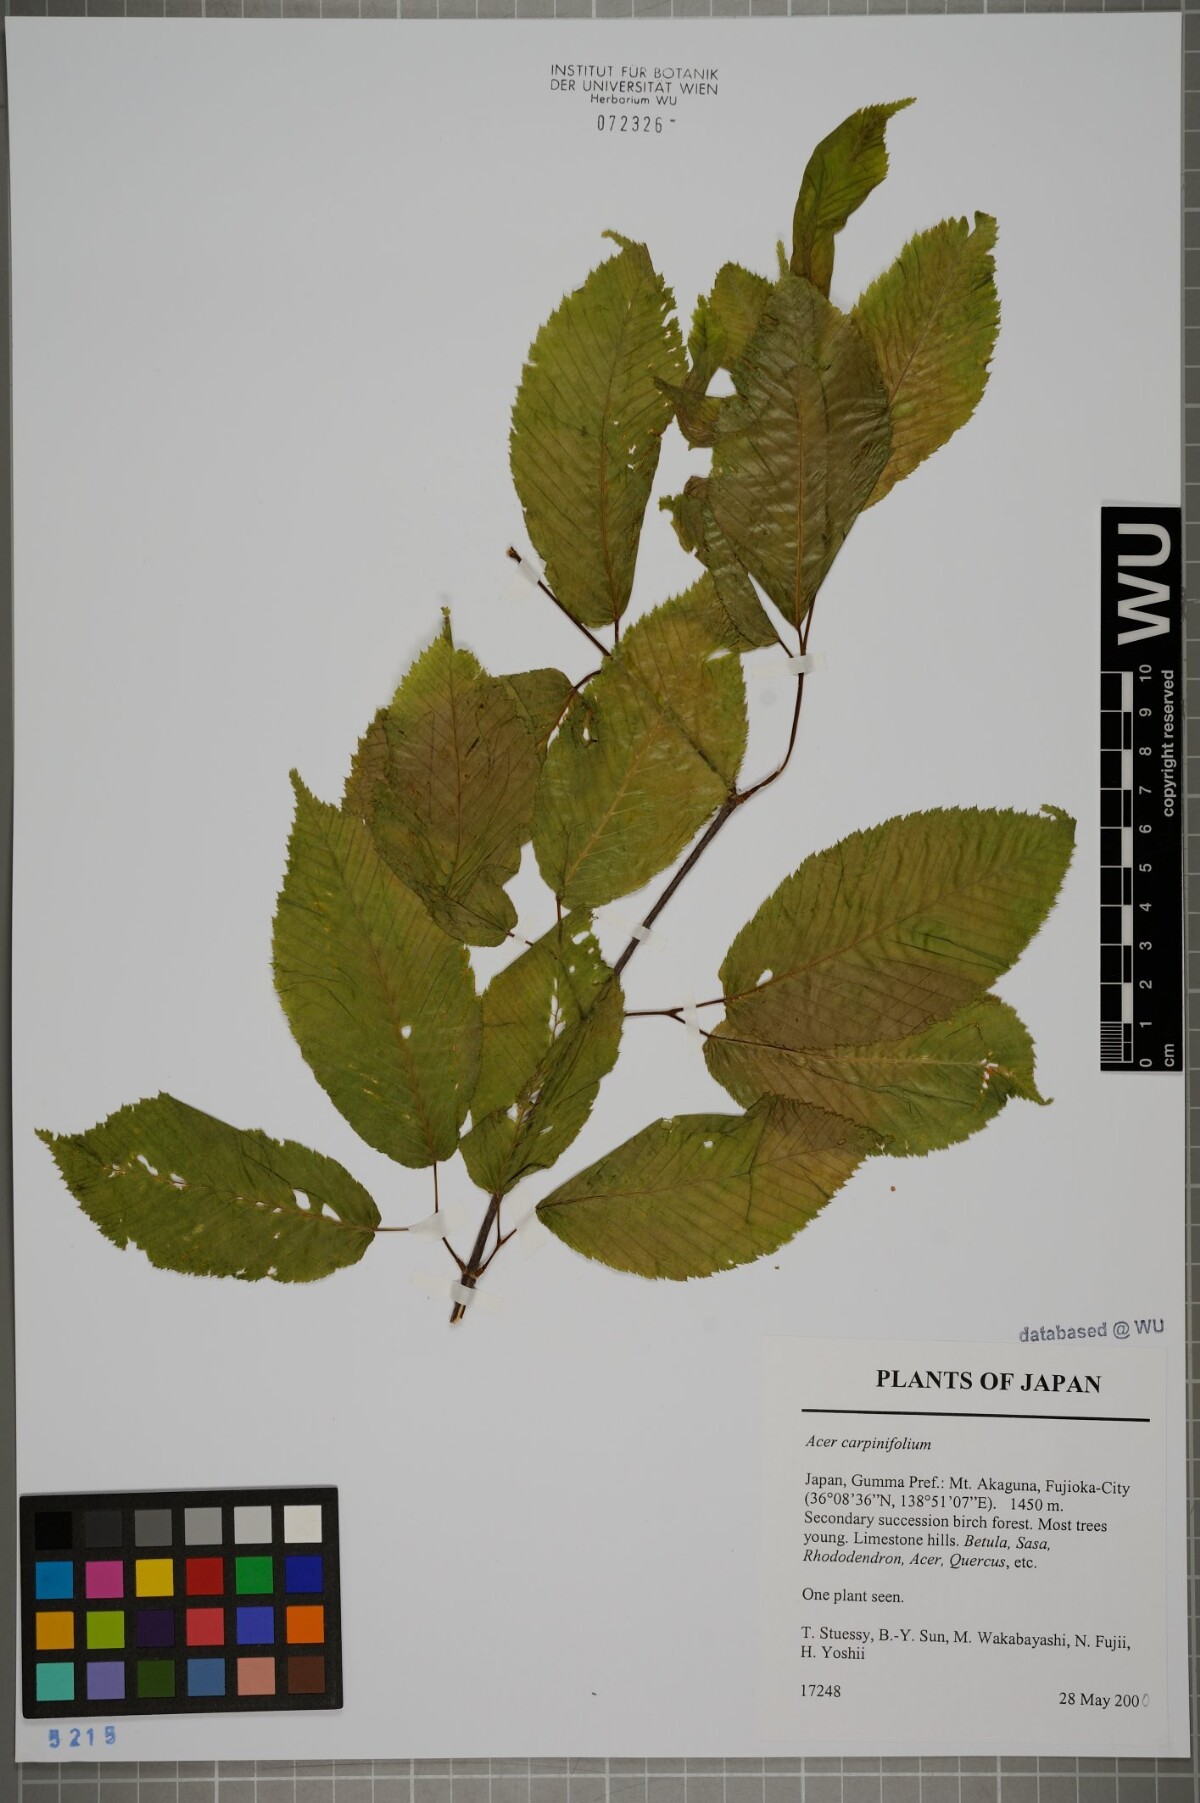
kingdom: Plantae
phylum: Tracheophyta
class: Magnoliopsida
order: Sapindales
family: Sapindaceae
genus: Acer
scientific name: Acer carpinifolium
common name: Hornbeam maple
